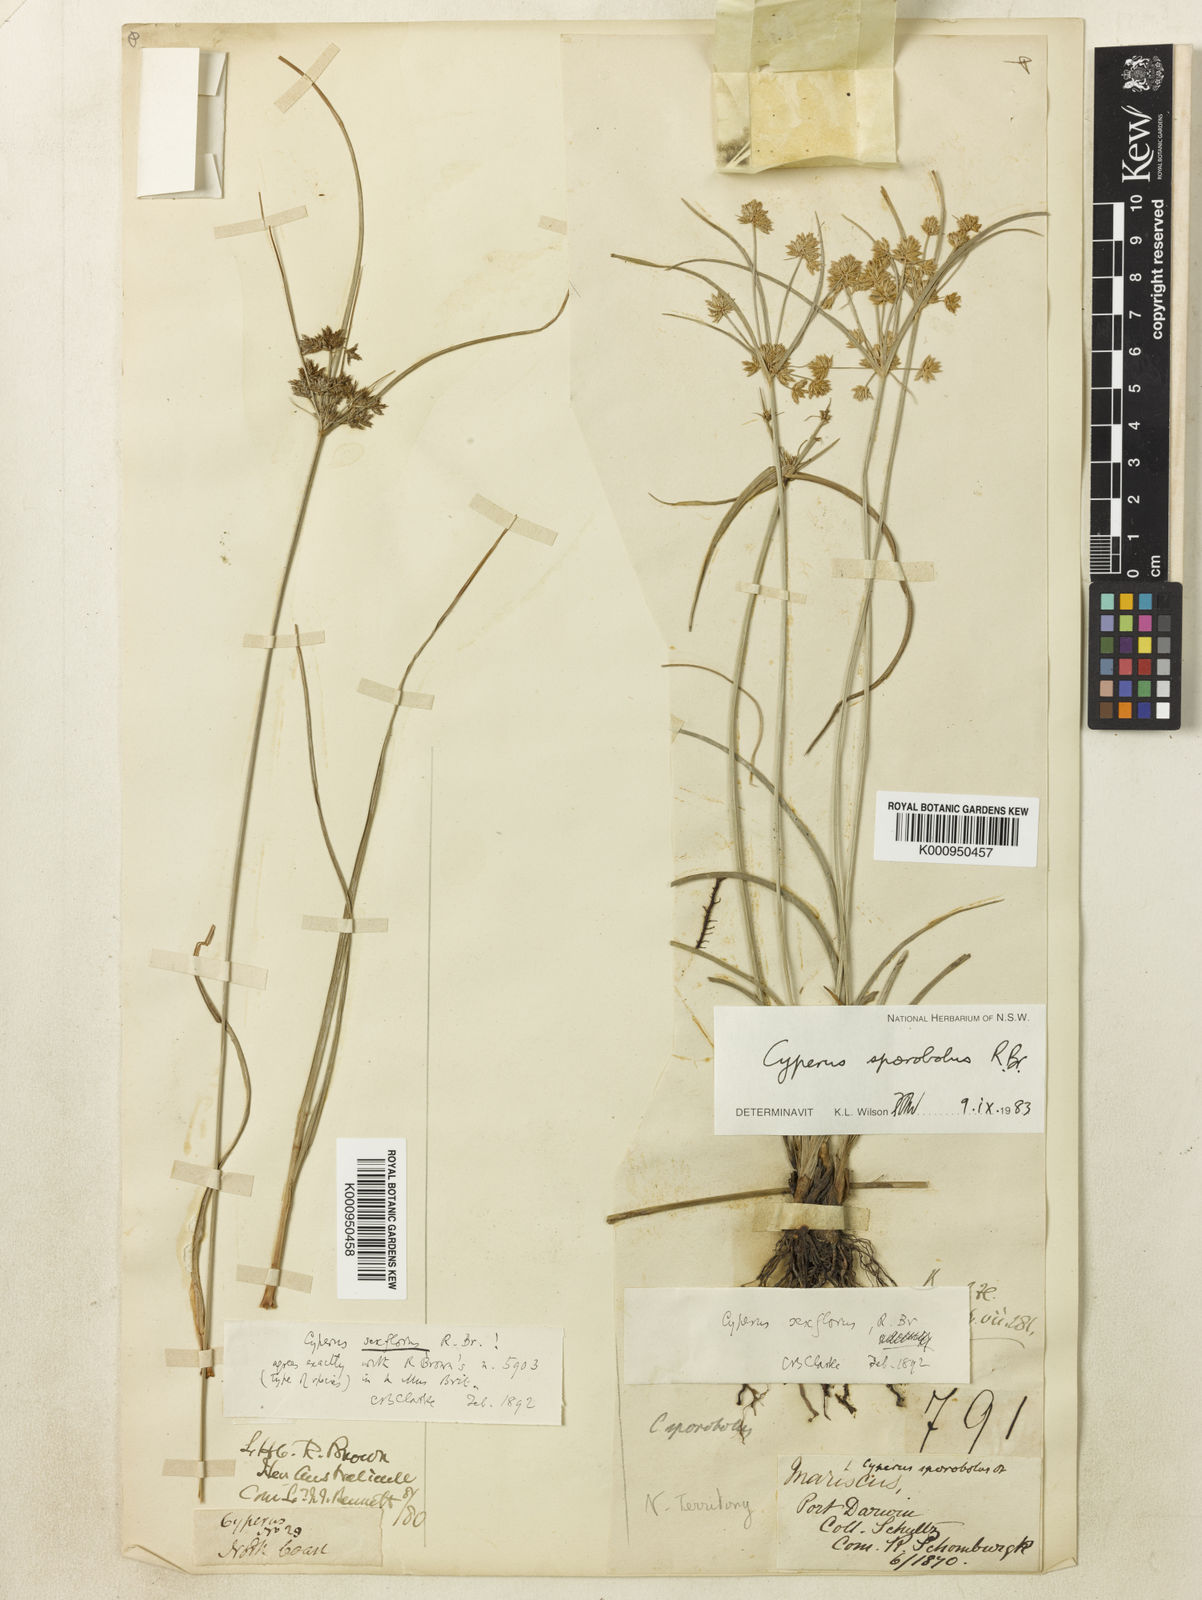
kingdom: Plantae
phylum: Tracheophyta
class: Liliopsida
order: Poales
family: Cyperaceae
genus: Cyperus
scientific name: Cyperus sporobolus
